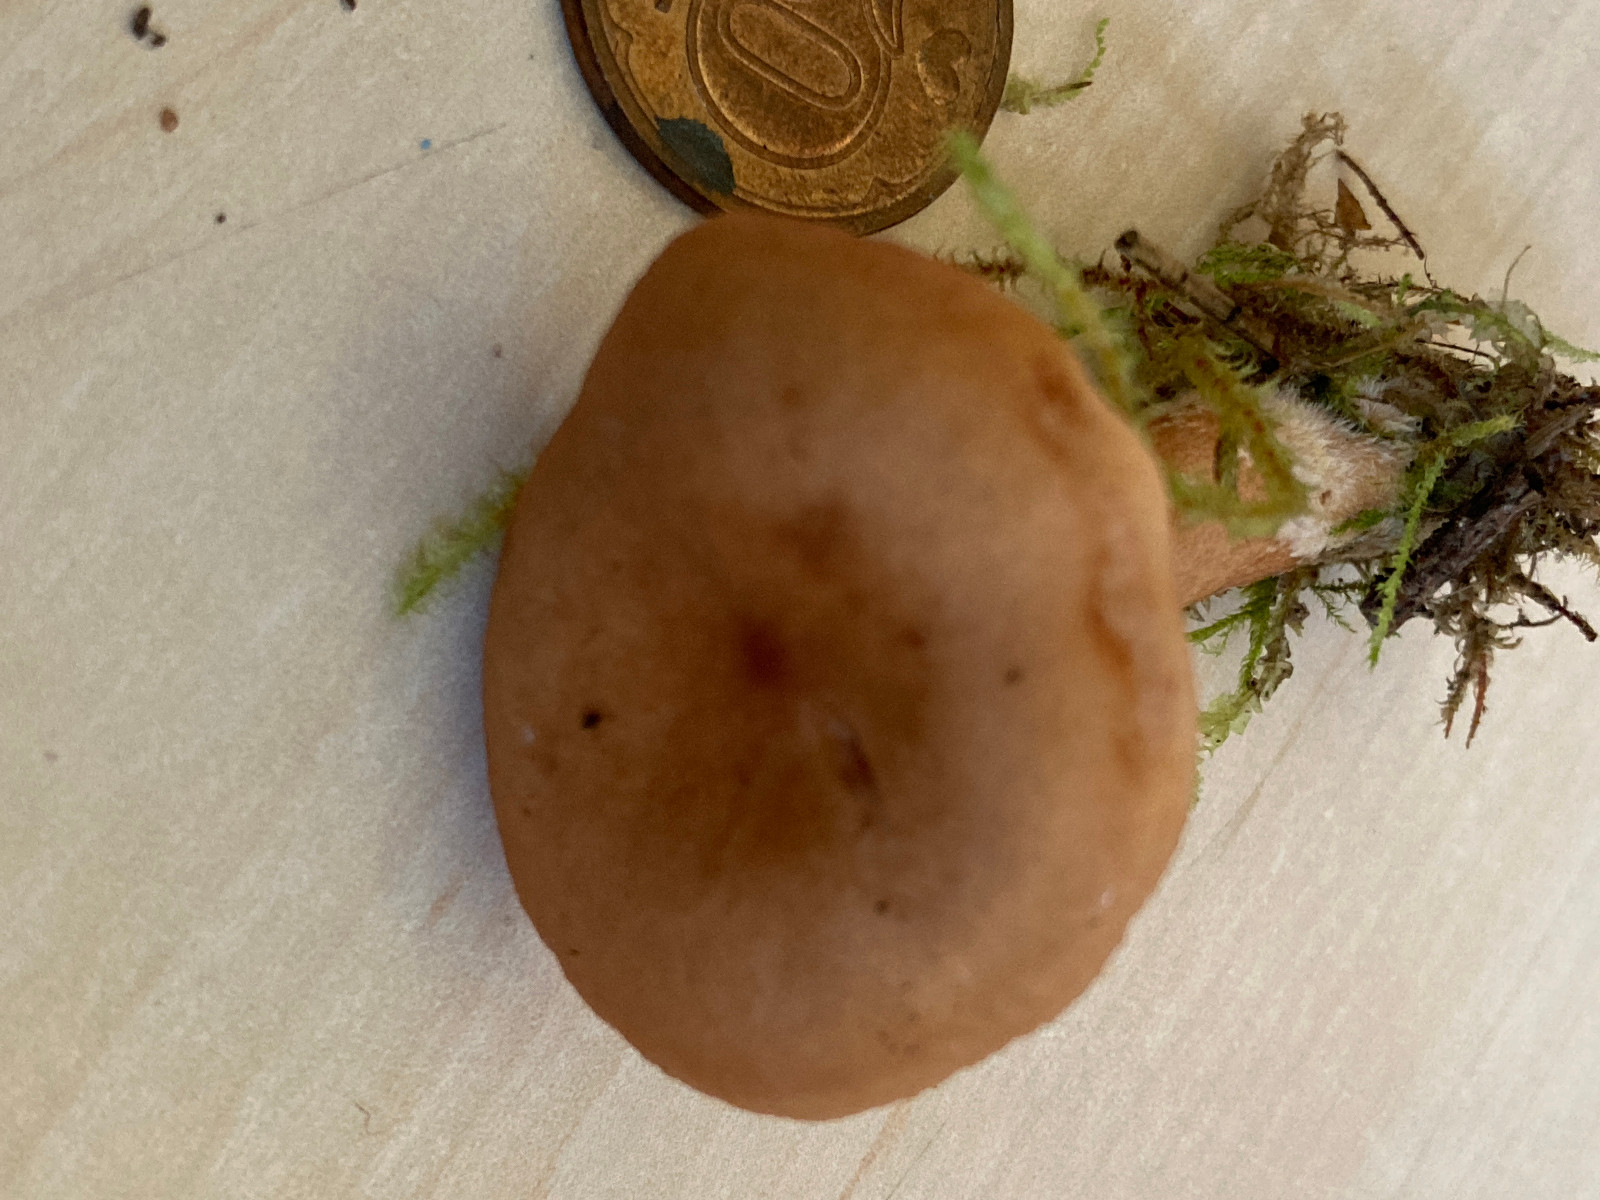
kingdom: Fungi
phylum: Basidiomycota
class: Agaricomycetes
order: Russulales
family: Russulaceae
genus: Lactarius
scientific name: Lactarius tabidus
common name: rynket mælkehat
